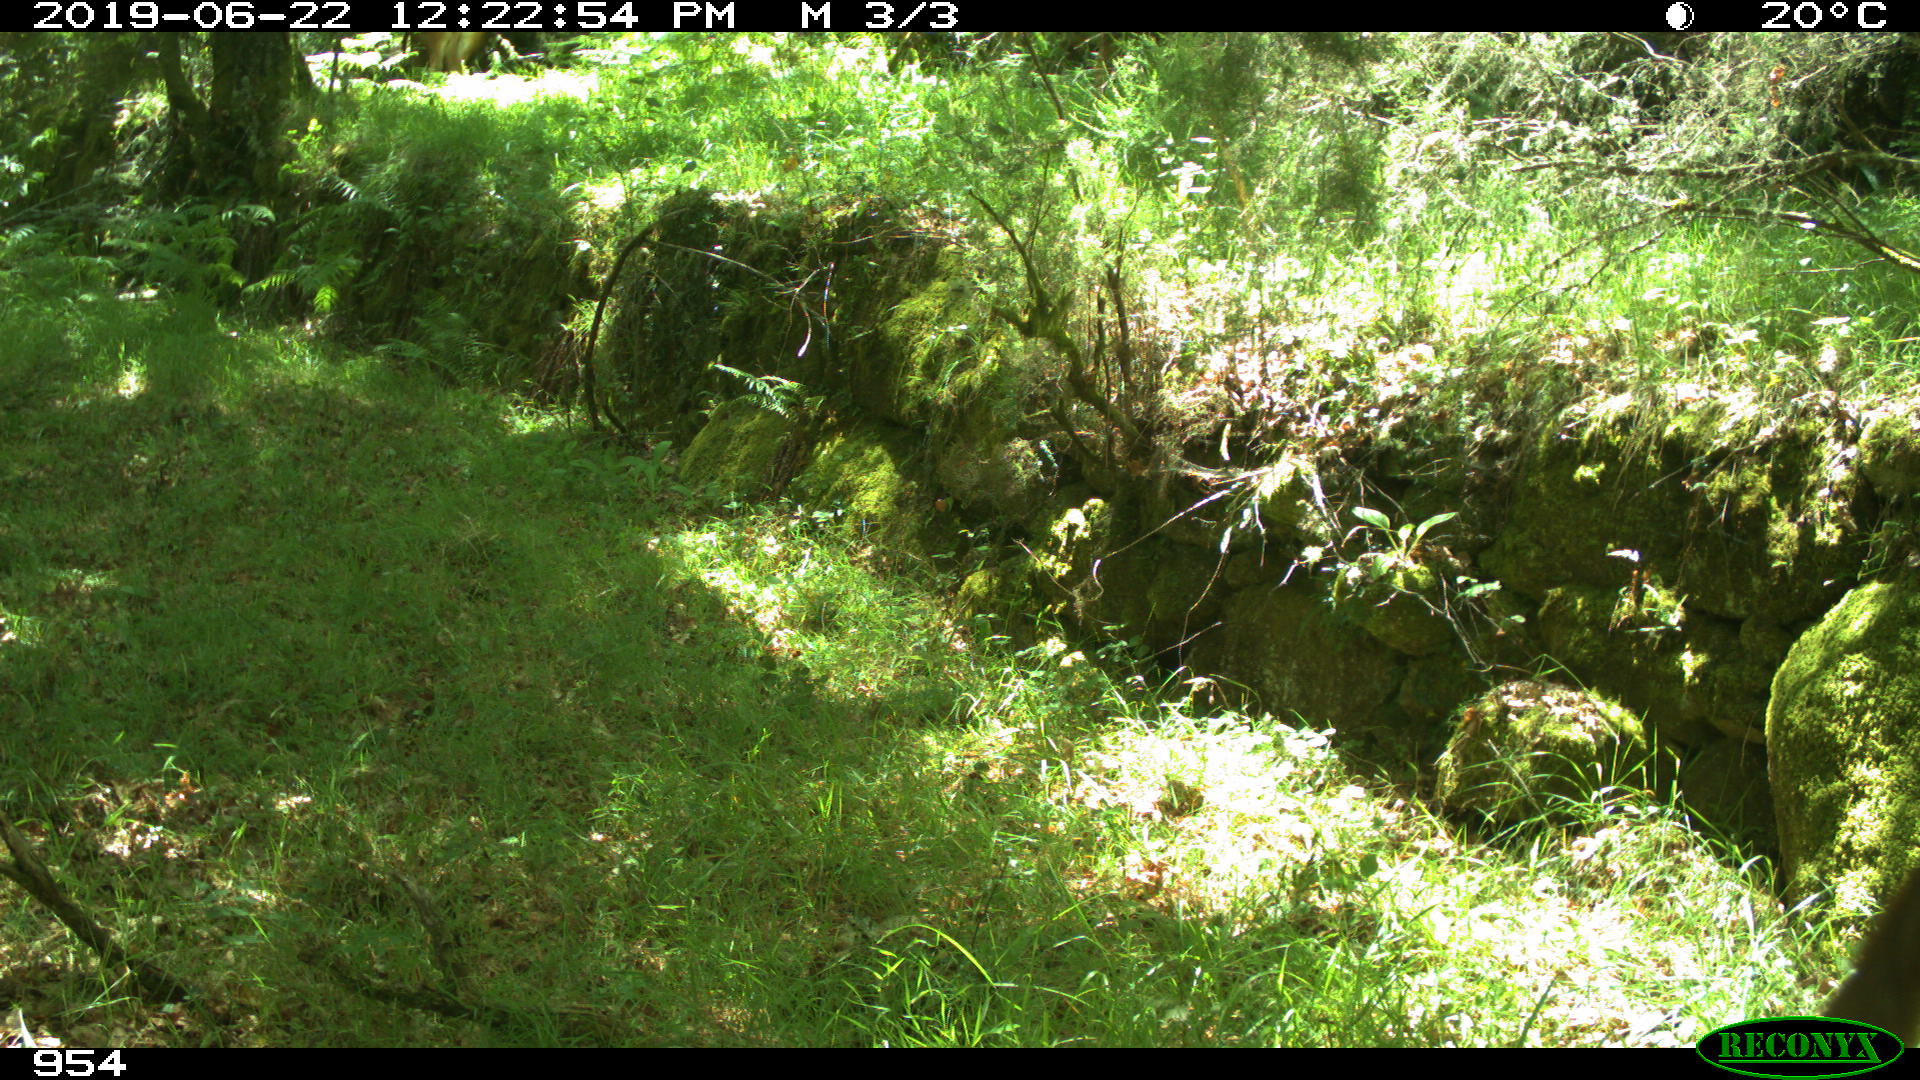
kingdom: Animalia
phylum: Chordata
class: Mammalia
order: Artiodactyla
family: Bovidae
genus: Bos
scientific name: Bos taurus
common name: Domesticated cattle
